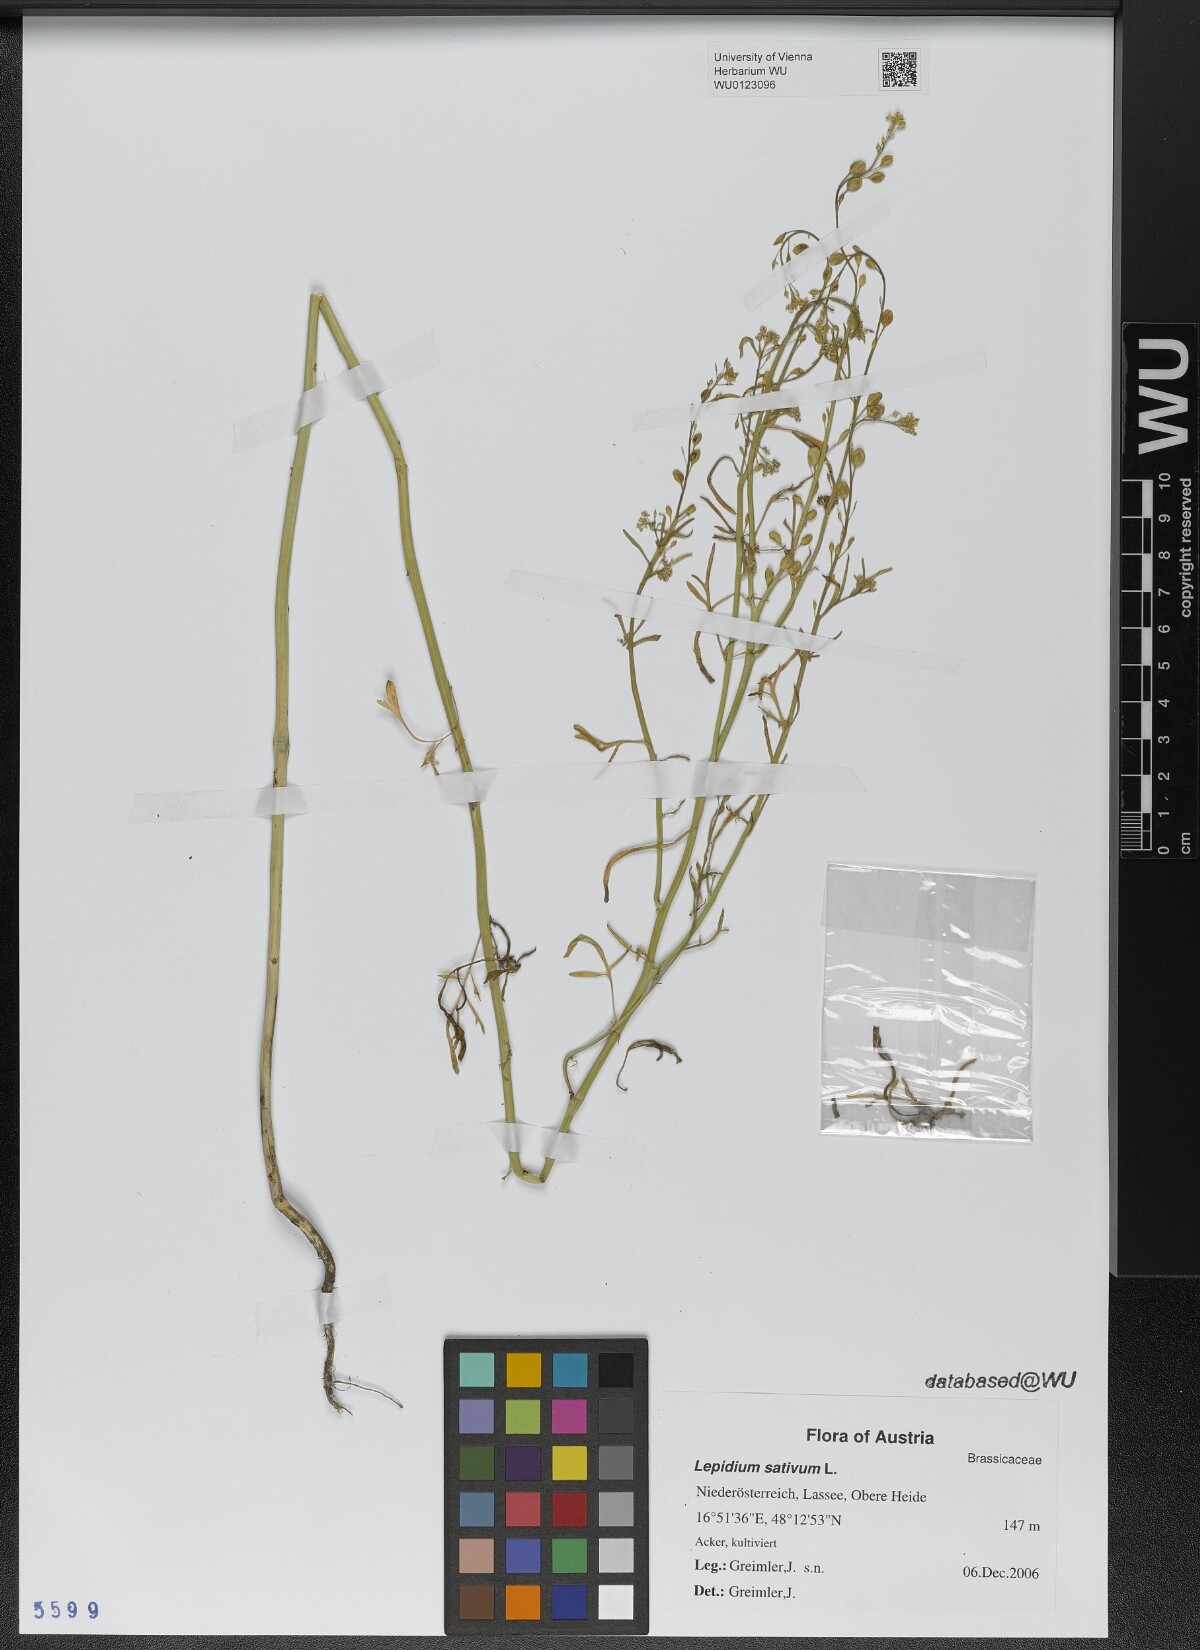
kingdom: Plantae
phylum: Tracheophyta
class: Magnoliopsida
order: Brassicales
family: Brassicaceae
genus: Lepidium
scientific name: Lepidium sativum
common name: Garden cress
